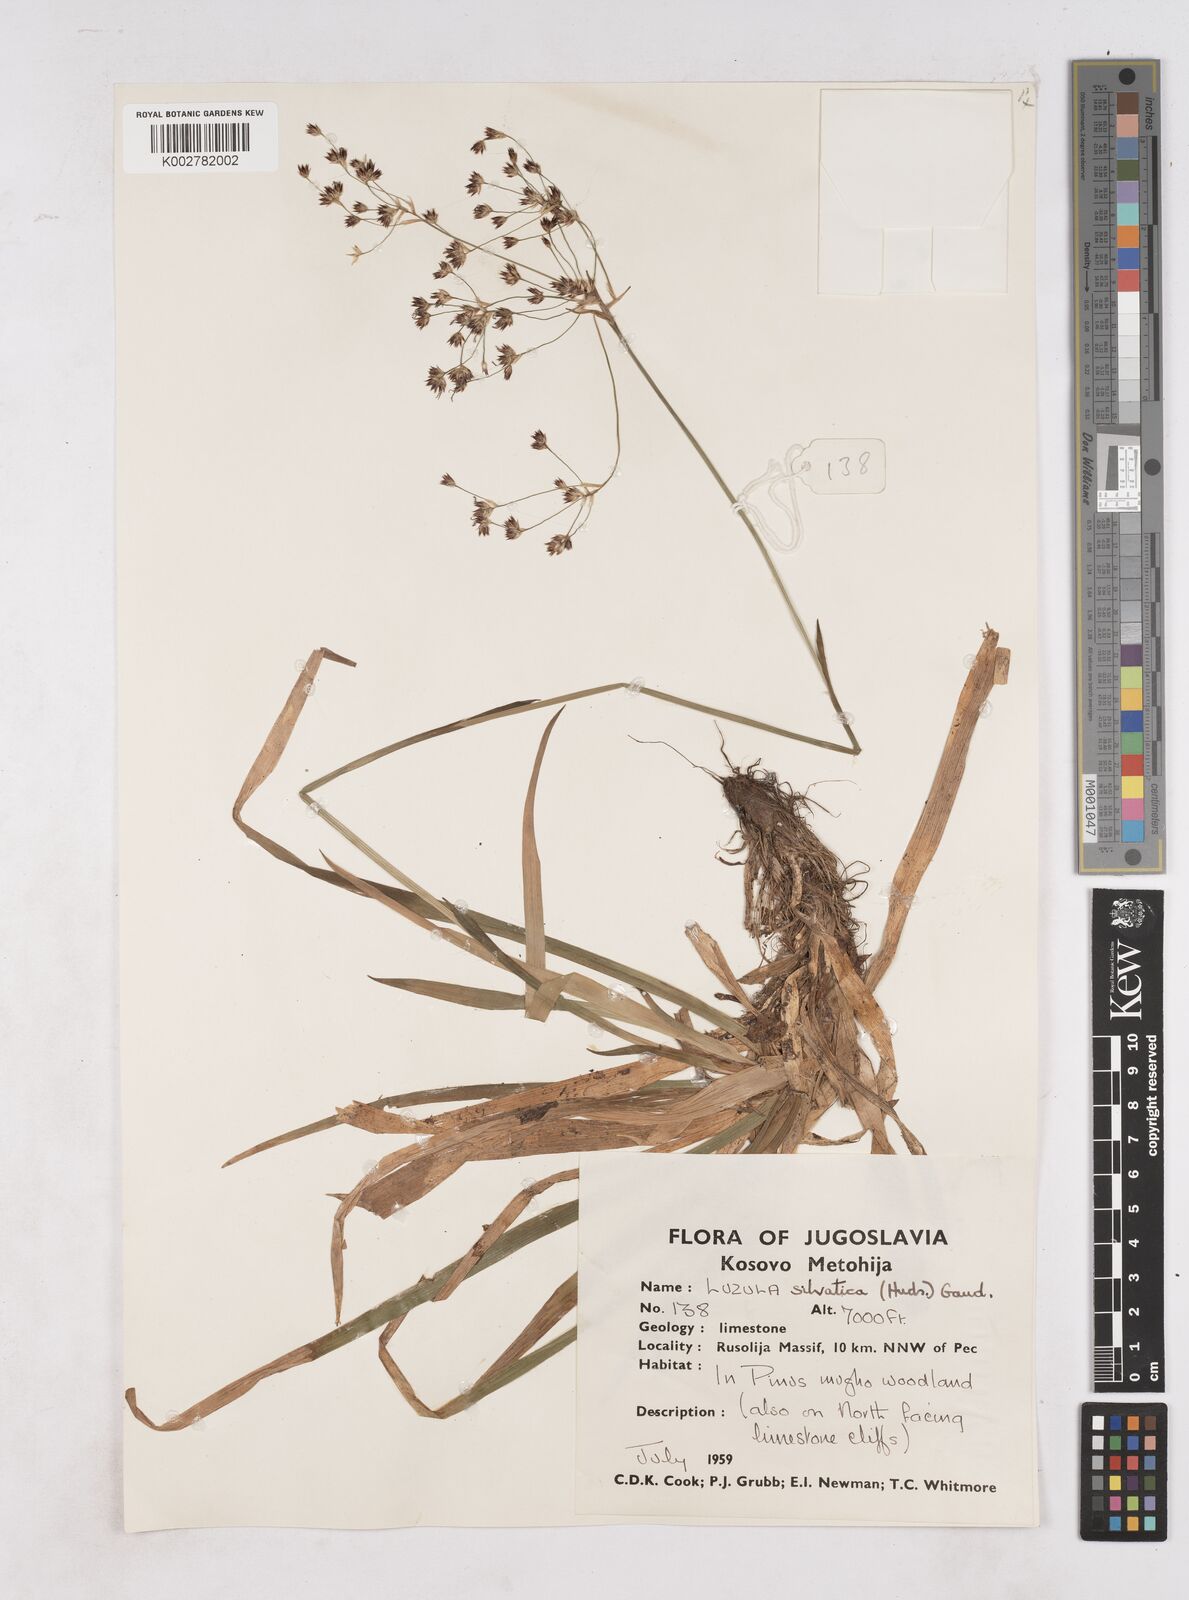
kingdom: Plantae
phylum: Tracheophyta
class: Liliopsida
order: Poales
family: Juncaceae
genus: Luzula
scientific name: Luzula sylvatica
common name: Great wood-rush
